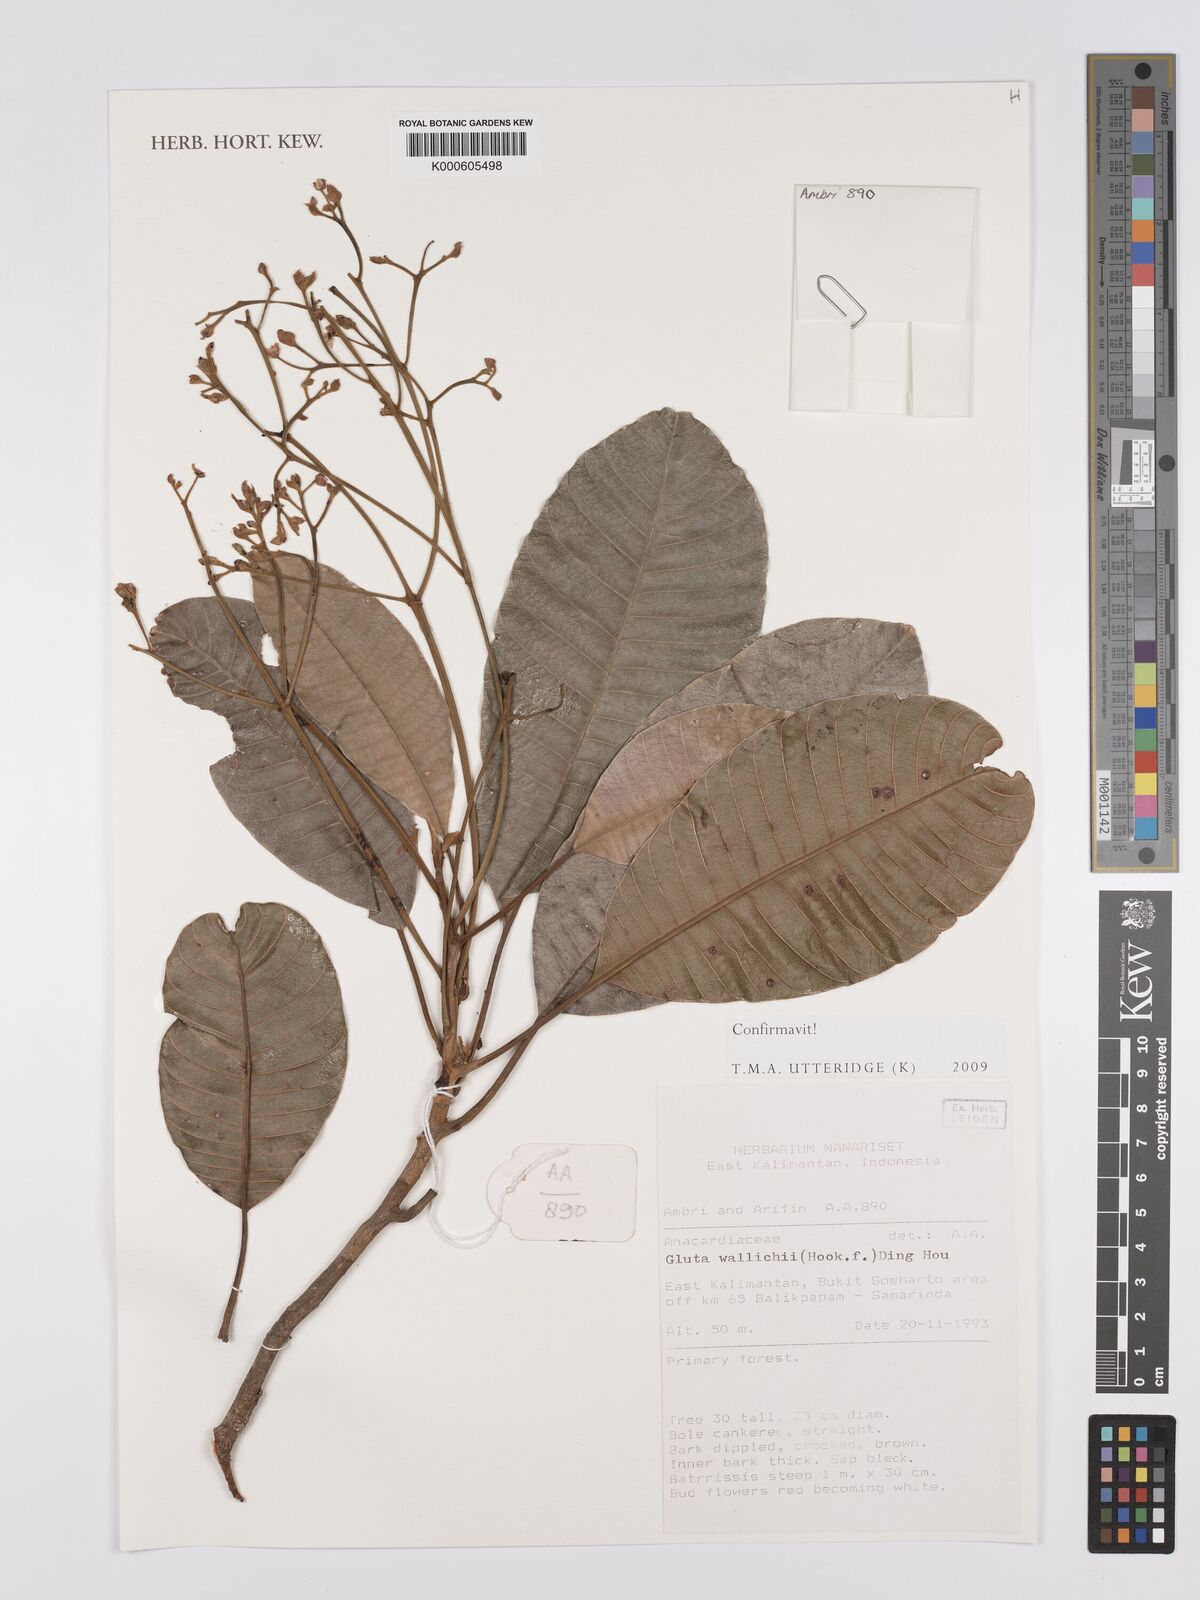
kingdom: Plantae
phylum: Tracheophyta
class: Magnoliopsida
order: Sapindales
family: Anacardiaceae
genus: Gluta
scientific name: Gluta wallichii
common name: Common rengas
